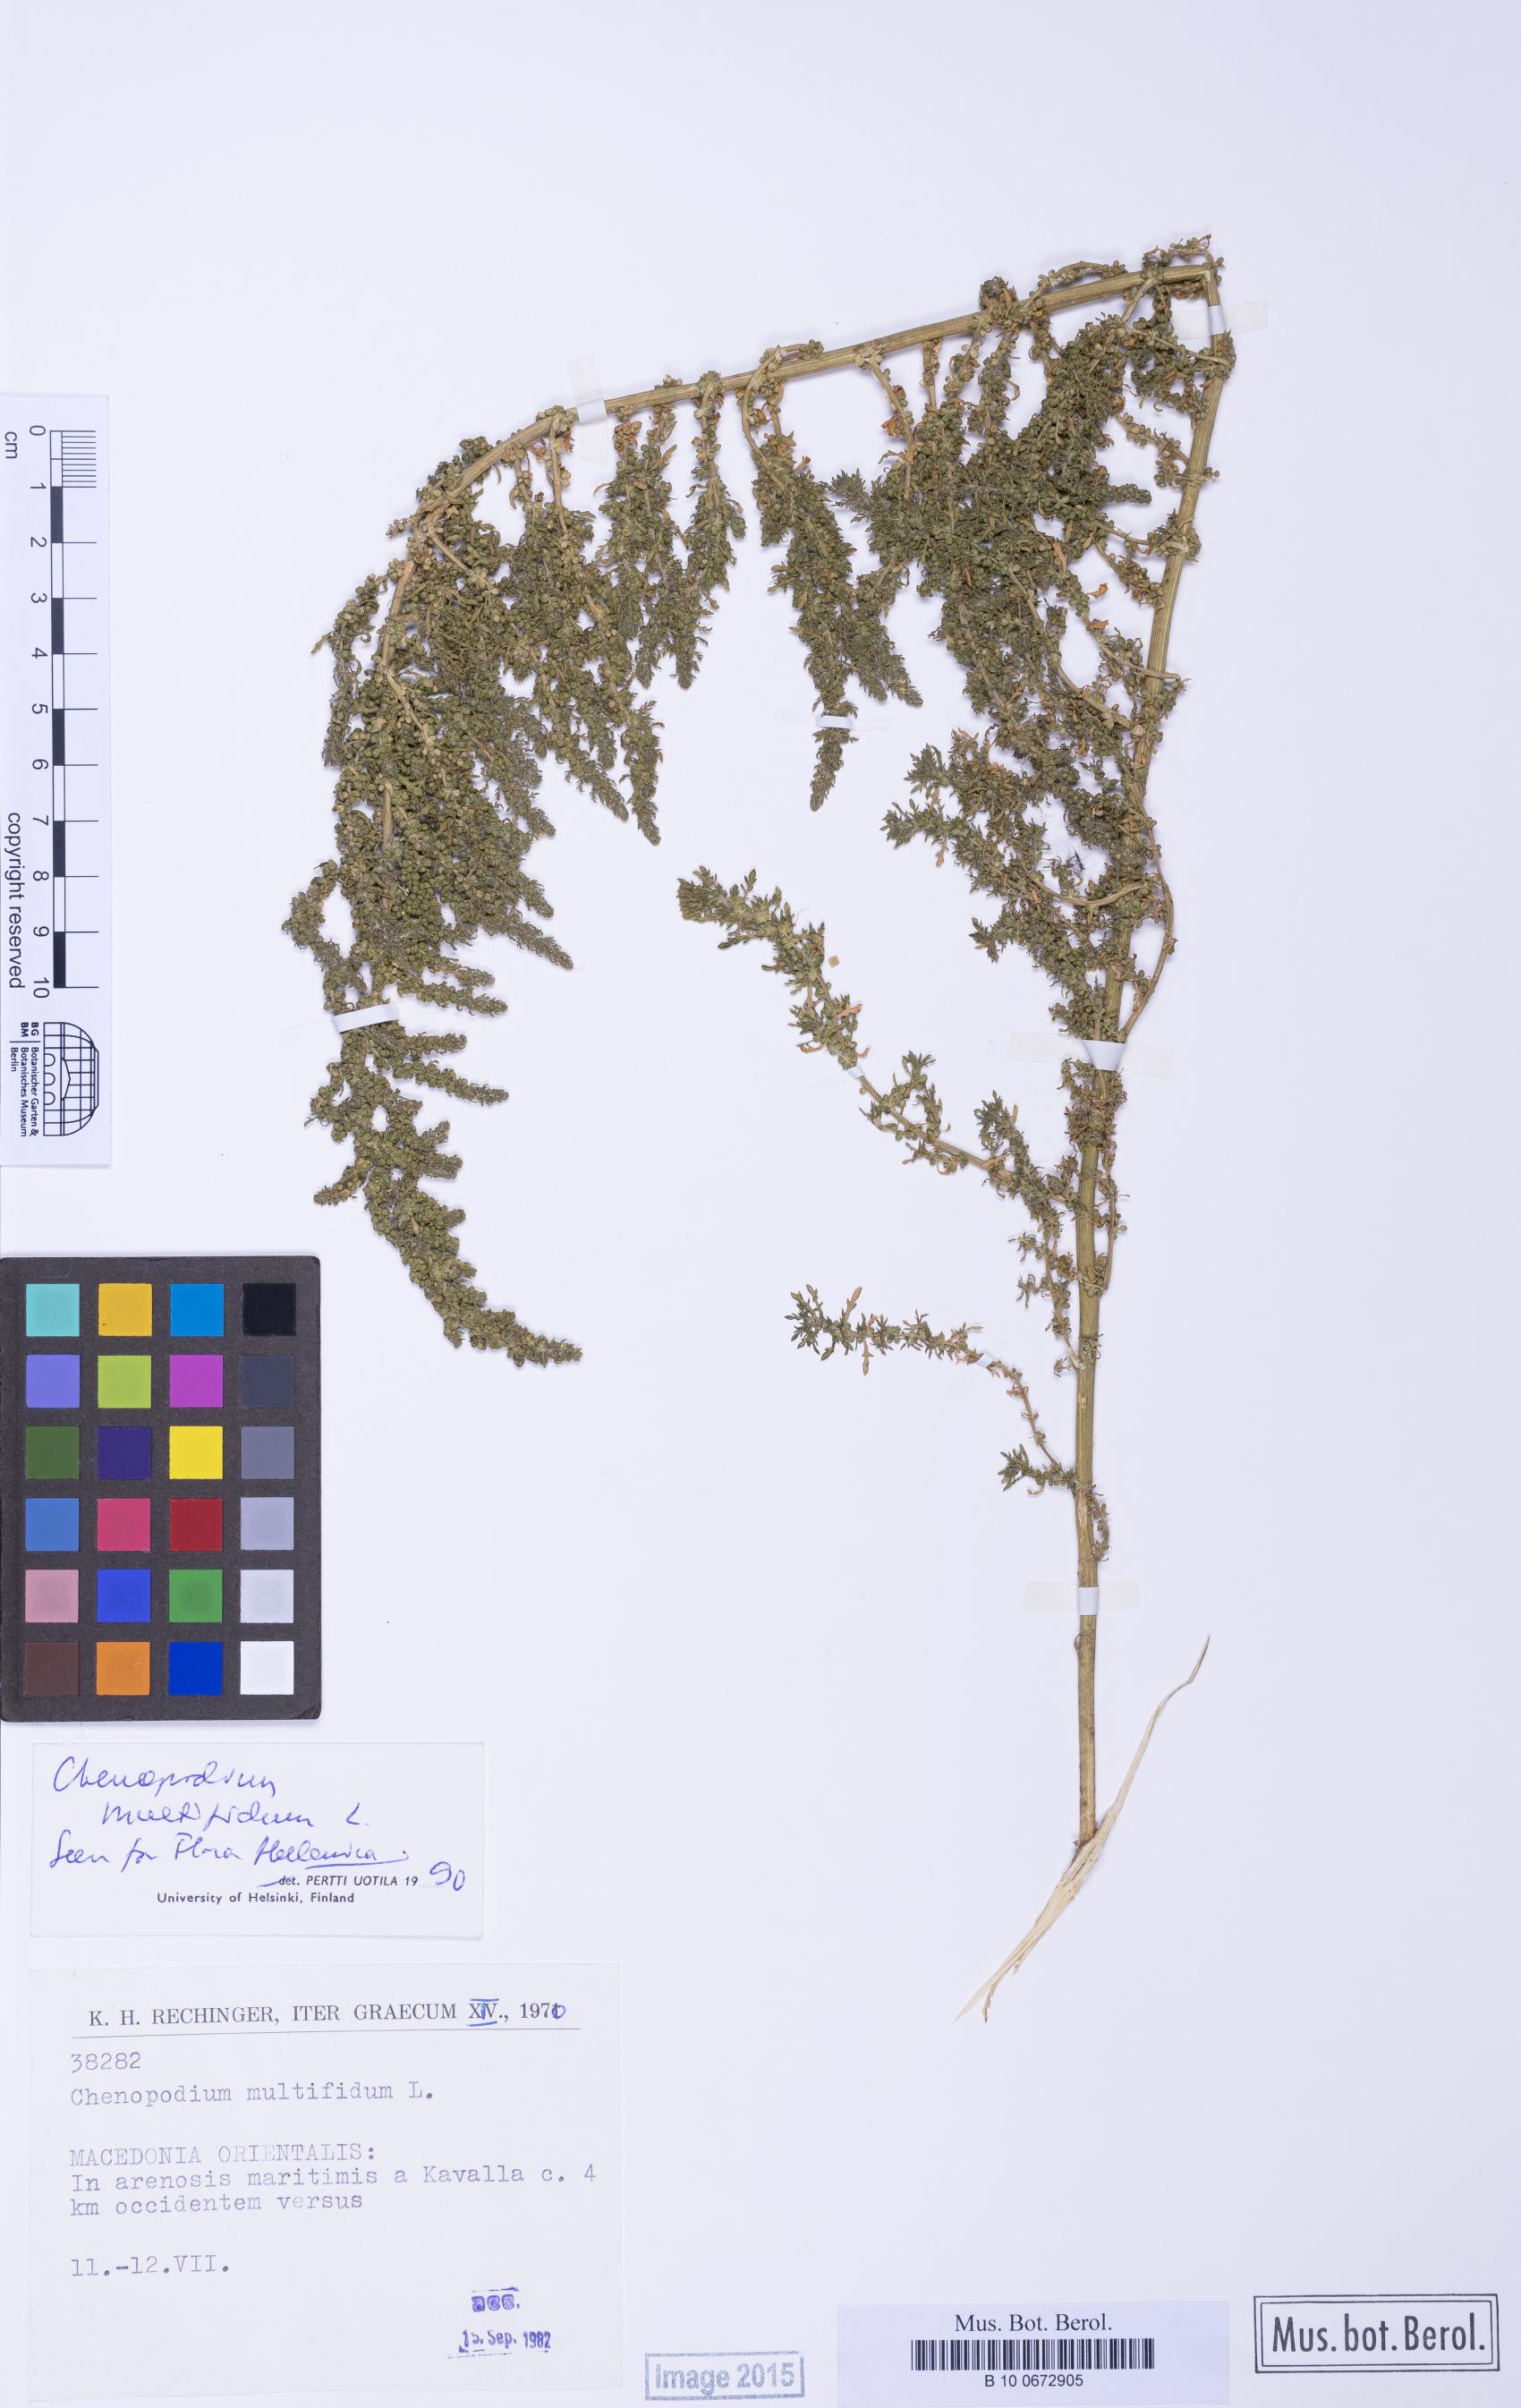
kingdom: Plantae
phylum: Tracheophyta
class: Magnoliopsida
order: Caryophyllales
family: Amaranthaceae
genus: Dysphania
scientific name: Dysphania multifida
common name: Cutleaf goosefoot
